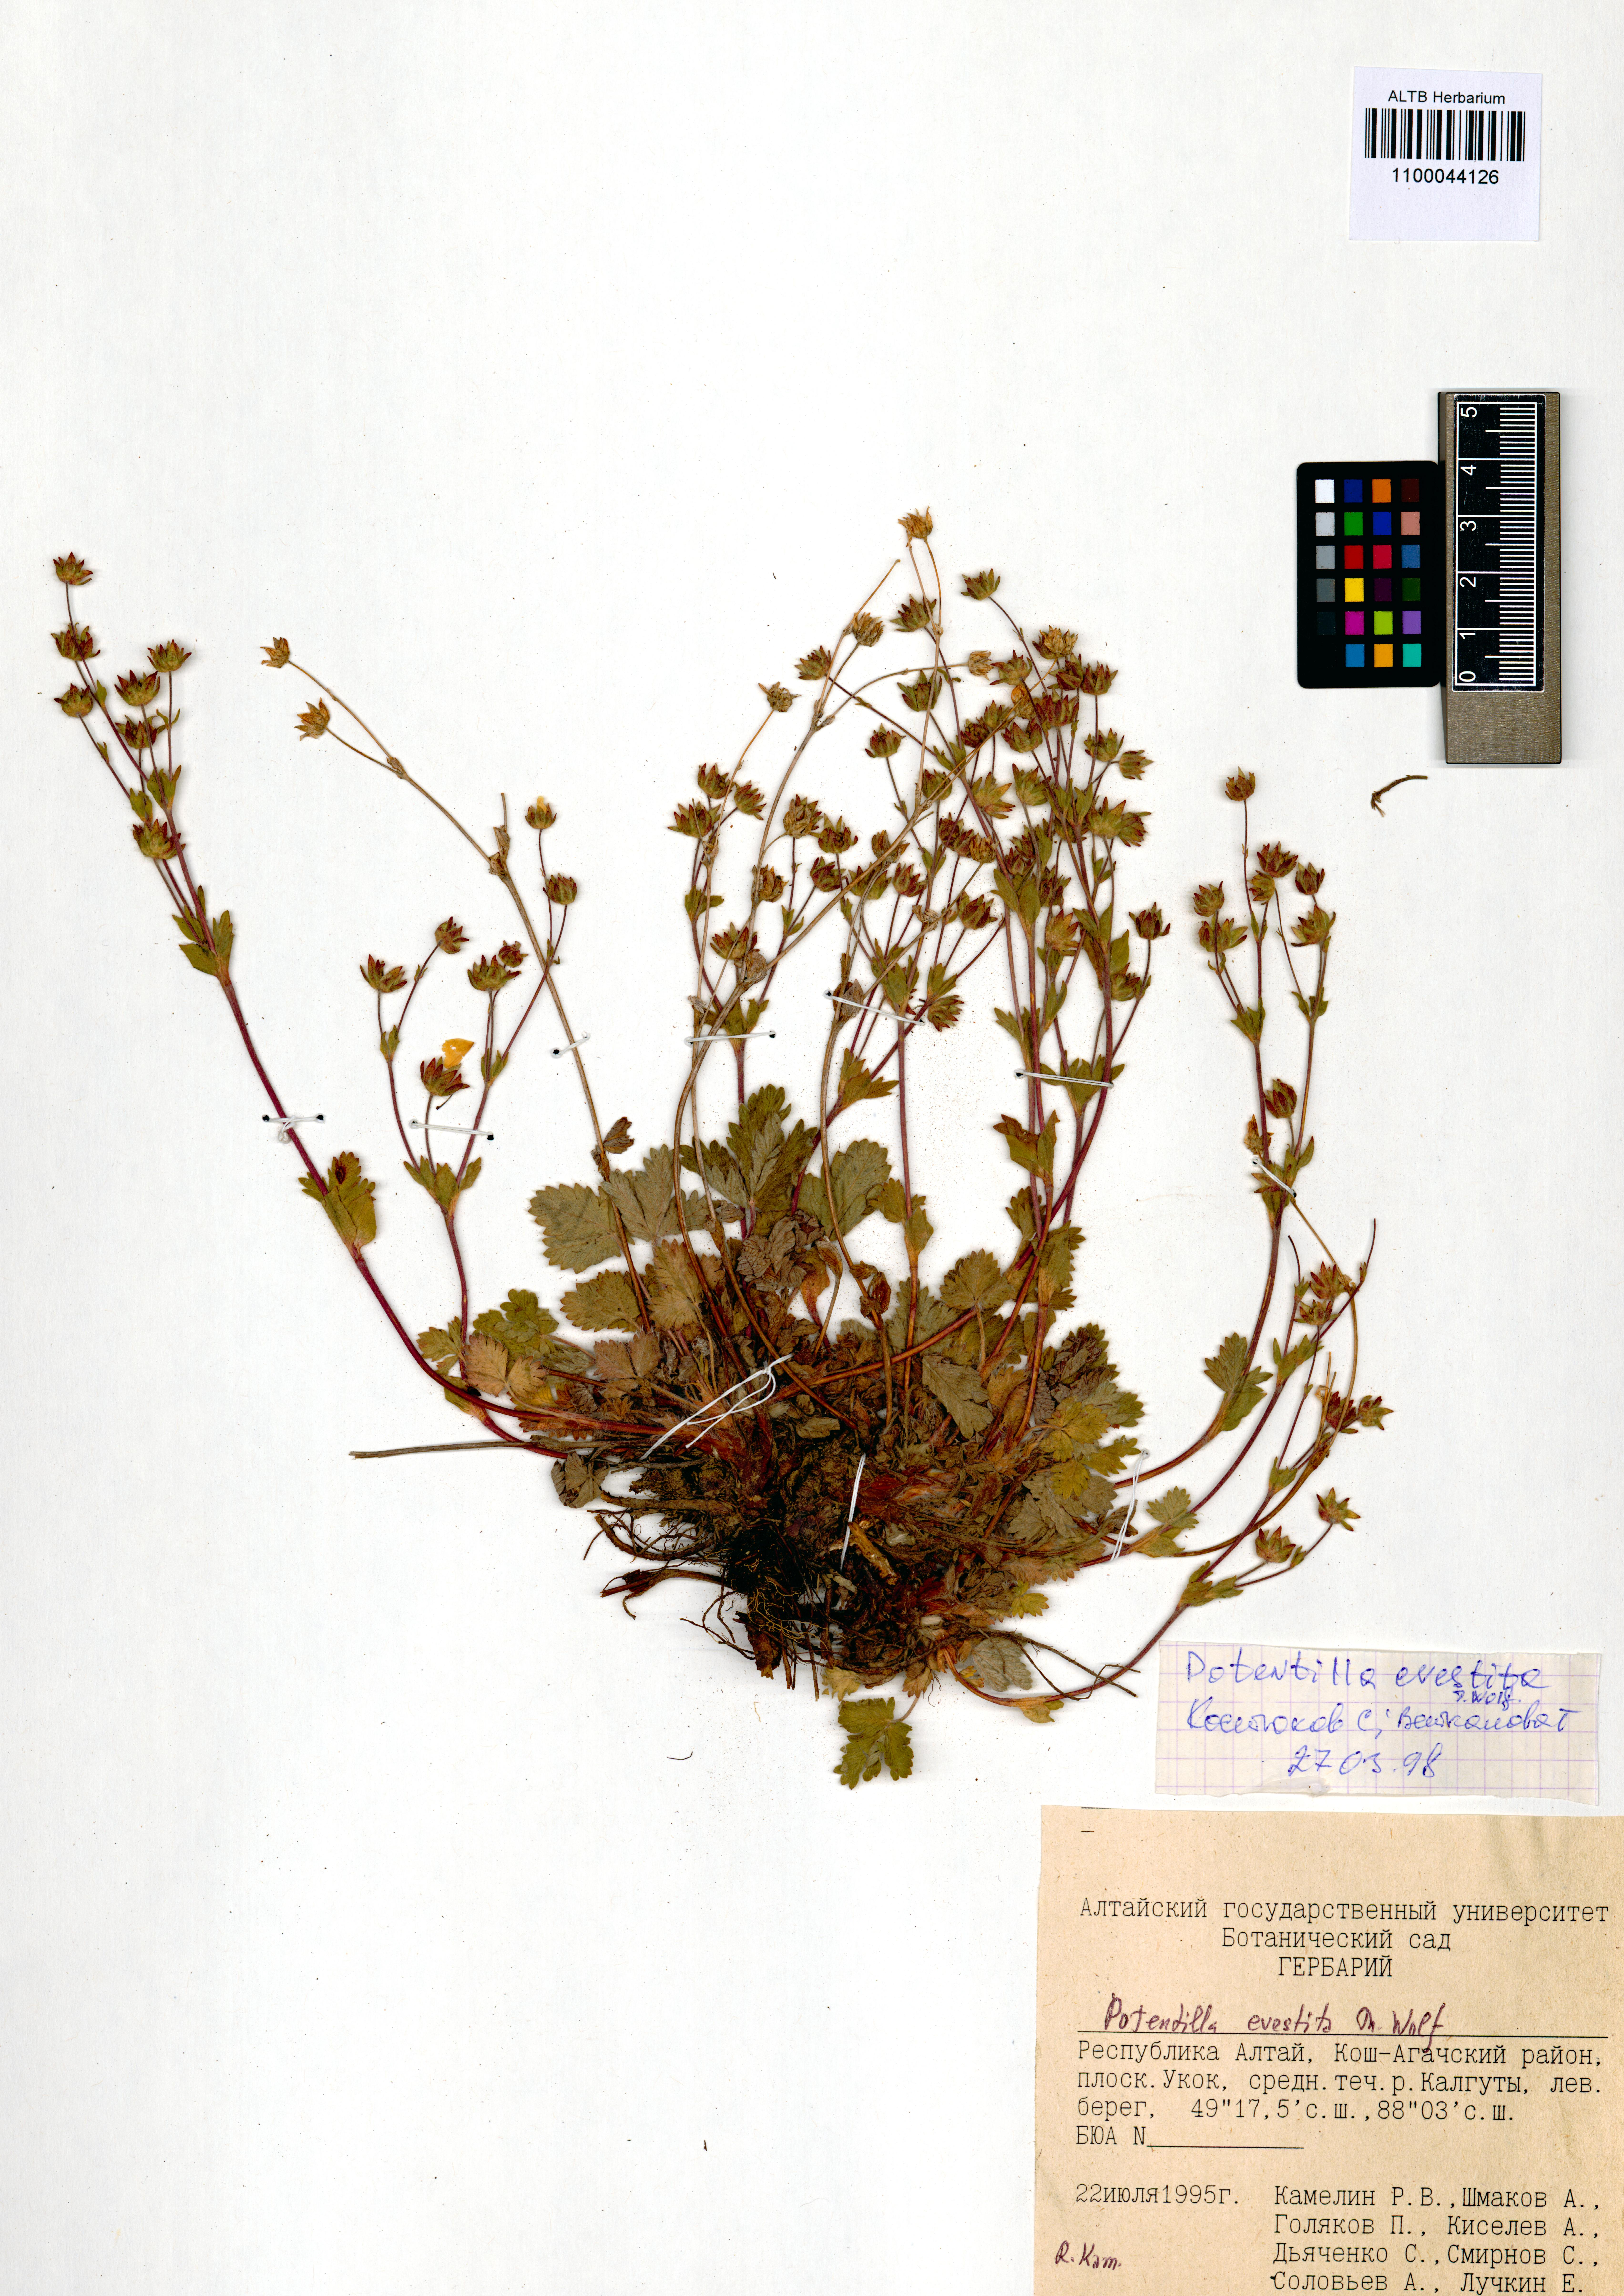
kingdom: Plantae
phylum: Tracheophyta
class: Magnoliopsida
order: Rosales
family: Rosaceae
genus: Potentilla
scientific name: Potentilla evestita
